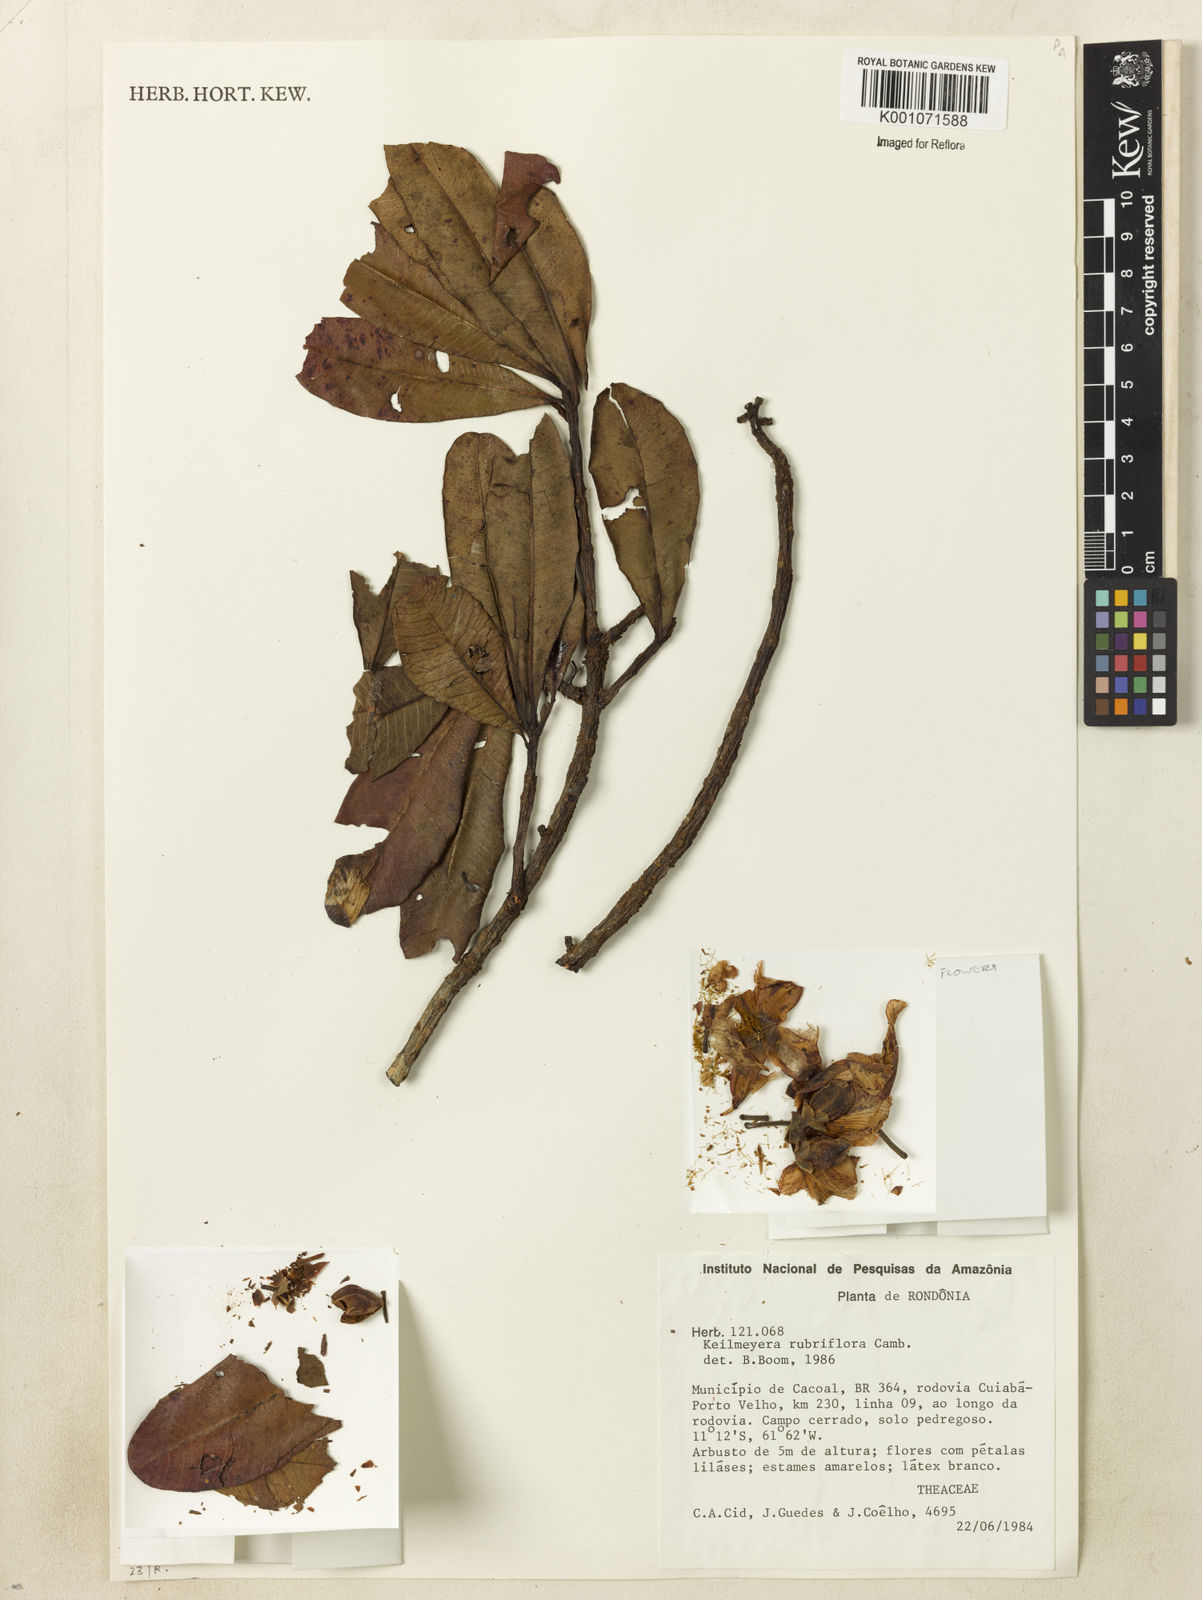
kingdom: Plantae
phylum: Tracheophyta
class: Magnoliopsida
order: Malpighiales
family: Calophyllaceae
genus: Kielmeyera
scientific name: Kielmeyera rubriflora
